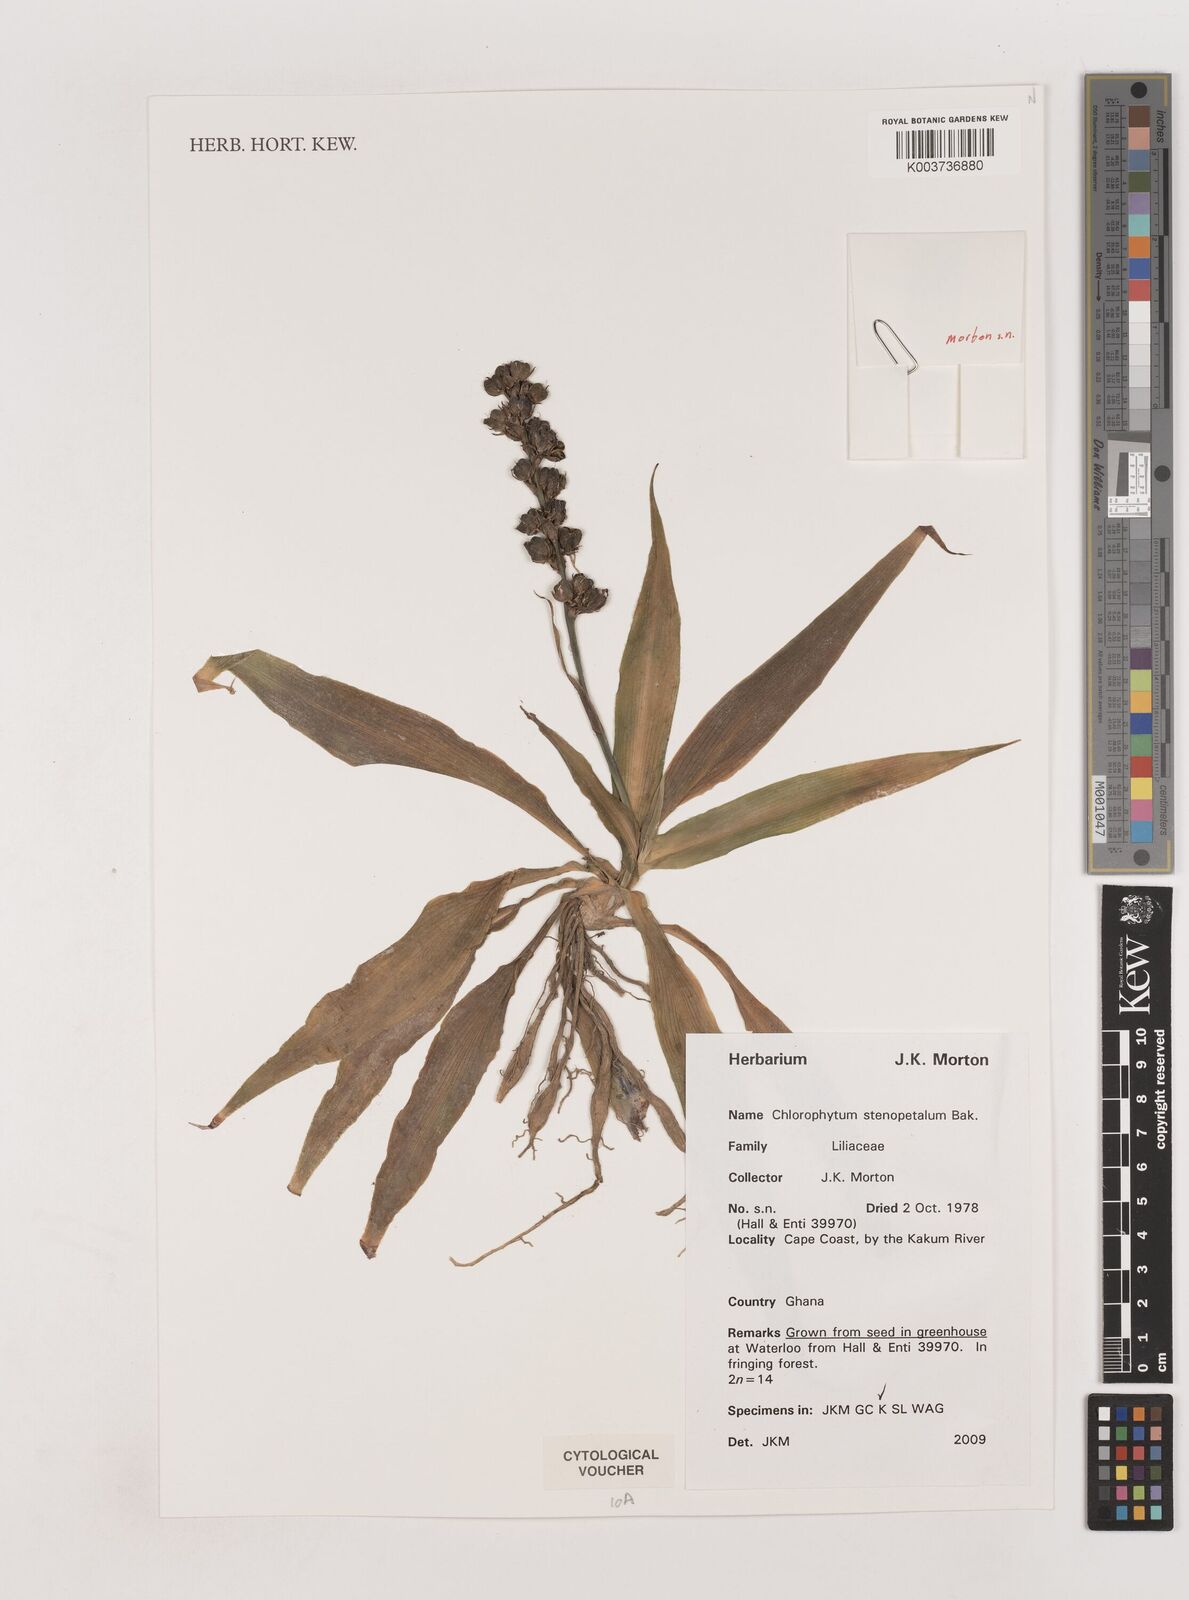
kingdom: Plantae
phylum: Tracheophyta
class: Liliopsida
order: Asparagales
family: Asparagaceae
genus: Chlorophytum
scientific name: Chlorophytum stenopetalum
